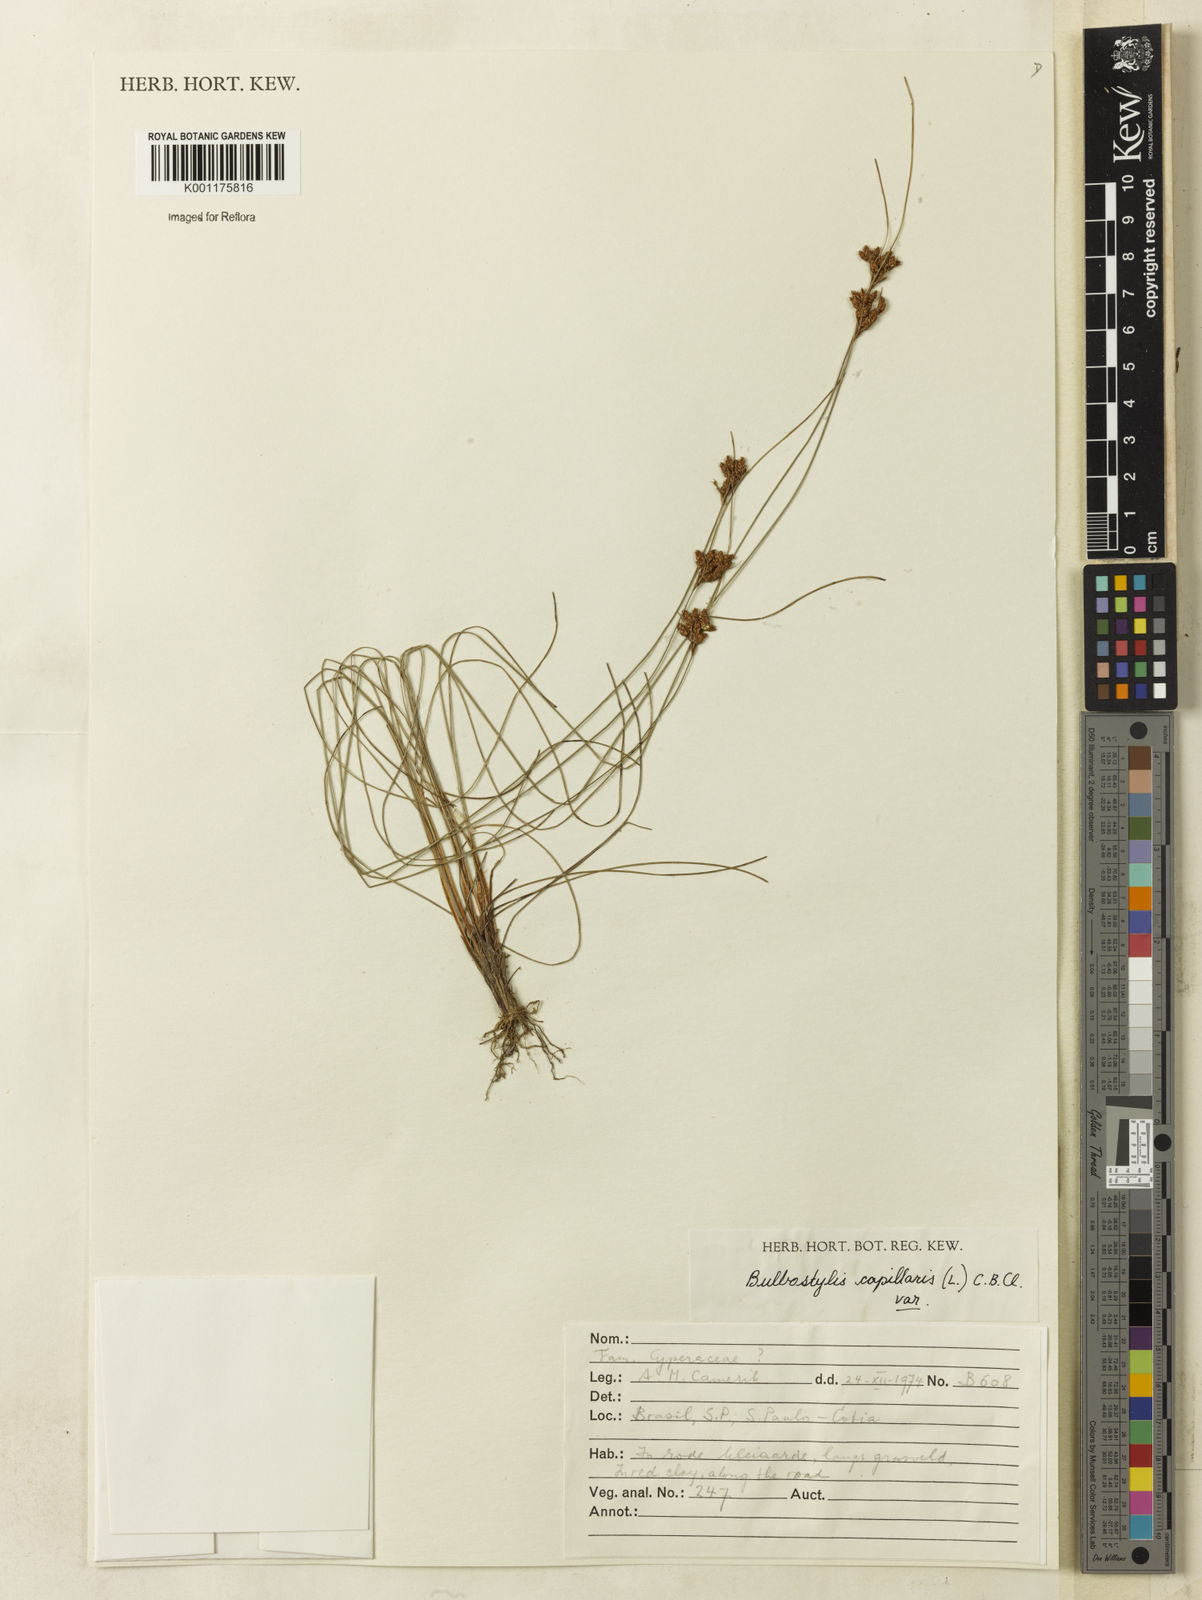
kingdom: Plantae
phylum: Tracheophyta
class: Liliopsida
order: Poales
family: Cyperaceae
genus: Bulbostylis
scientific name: Bulbostylis capillaris
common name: Densetuft hairsedge
